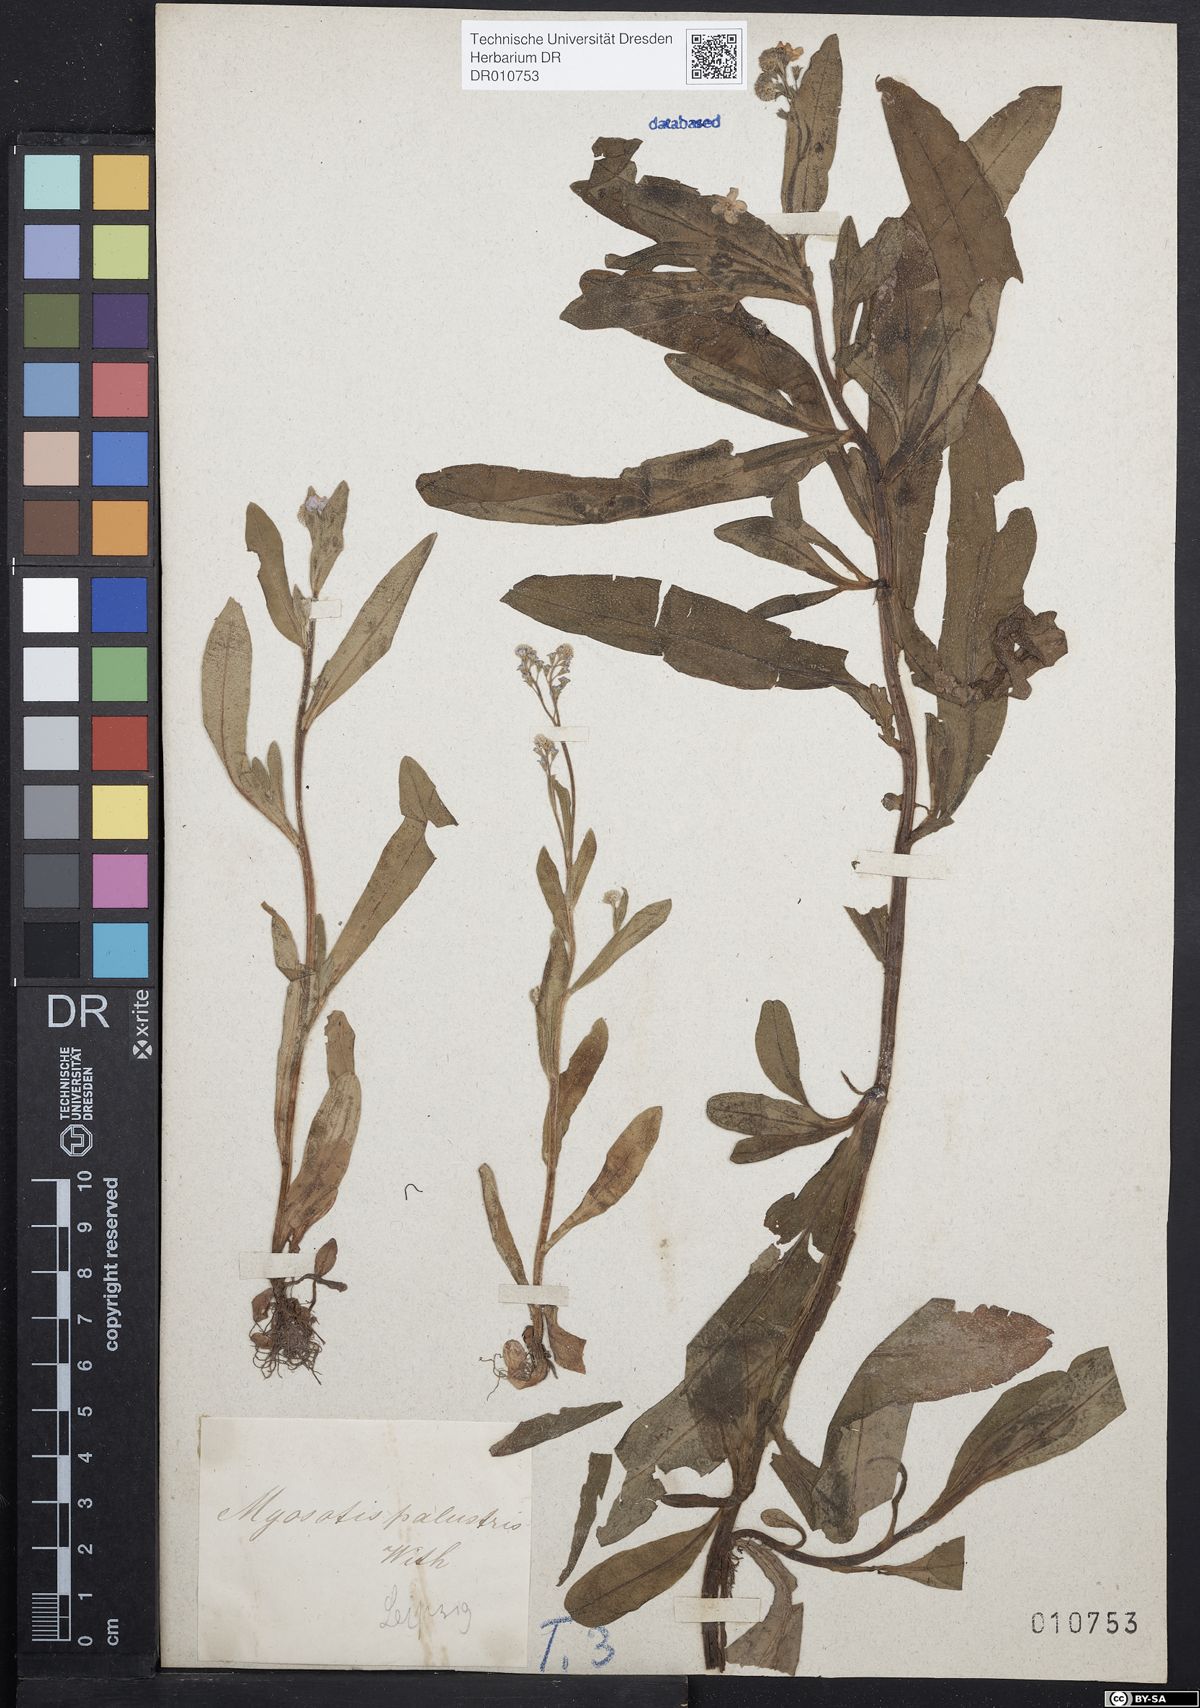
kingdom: Plantae
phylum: Tracheophyta
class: Magnoliopsida
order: Boraginales
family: Boraginaceae
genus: Myosotis
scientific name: Myosotis scorpioides
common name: Water forget-me-not
